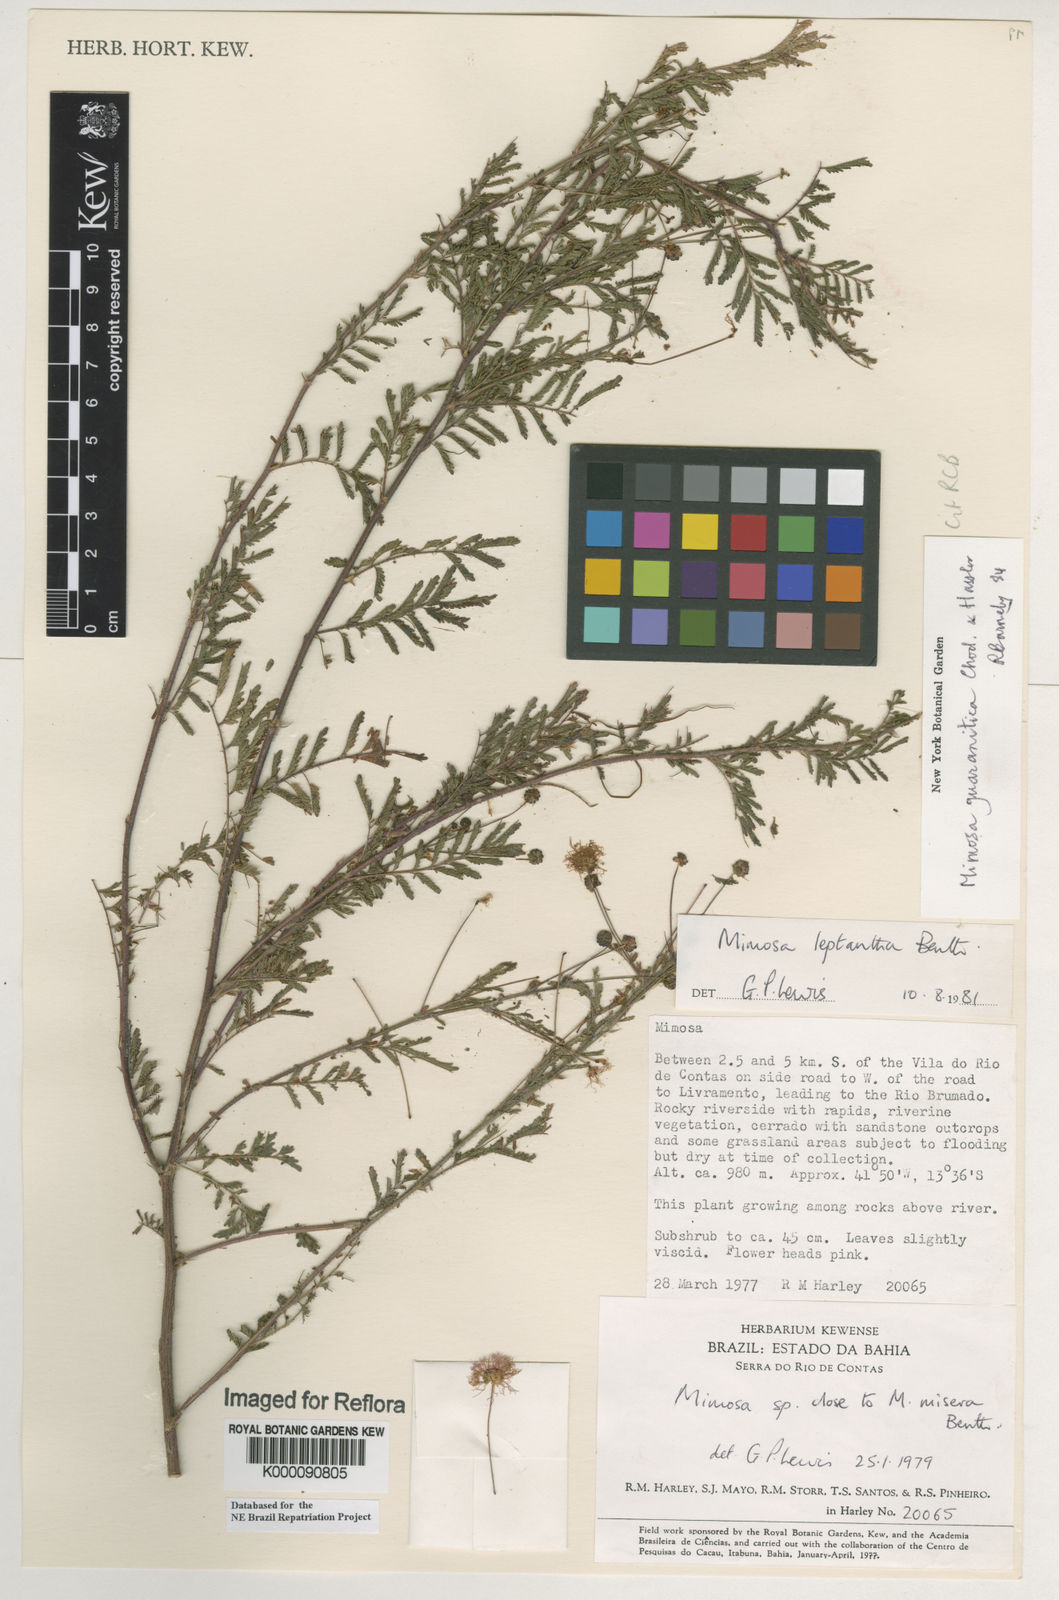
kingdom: Plantae
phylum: Tracheophyta
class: Magnoliopsida
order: Fabales
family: Fabaceae
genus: Mimosa
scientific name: Mimosa guaranitica
